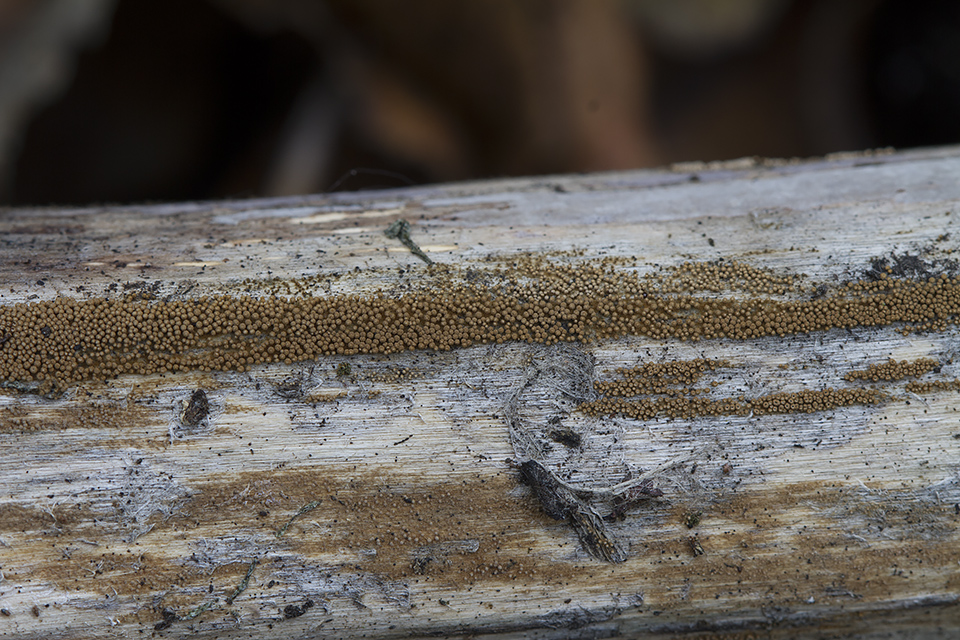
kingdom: Fungi
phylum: Basidiomycota
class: Agaricomycetes
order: Agaricales
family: Niaceae
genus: Merismodes
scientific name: Merismodes anomala
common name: almindelig læderskål
